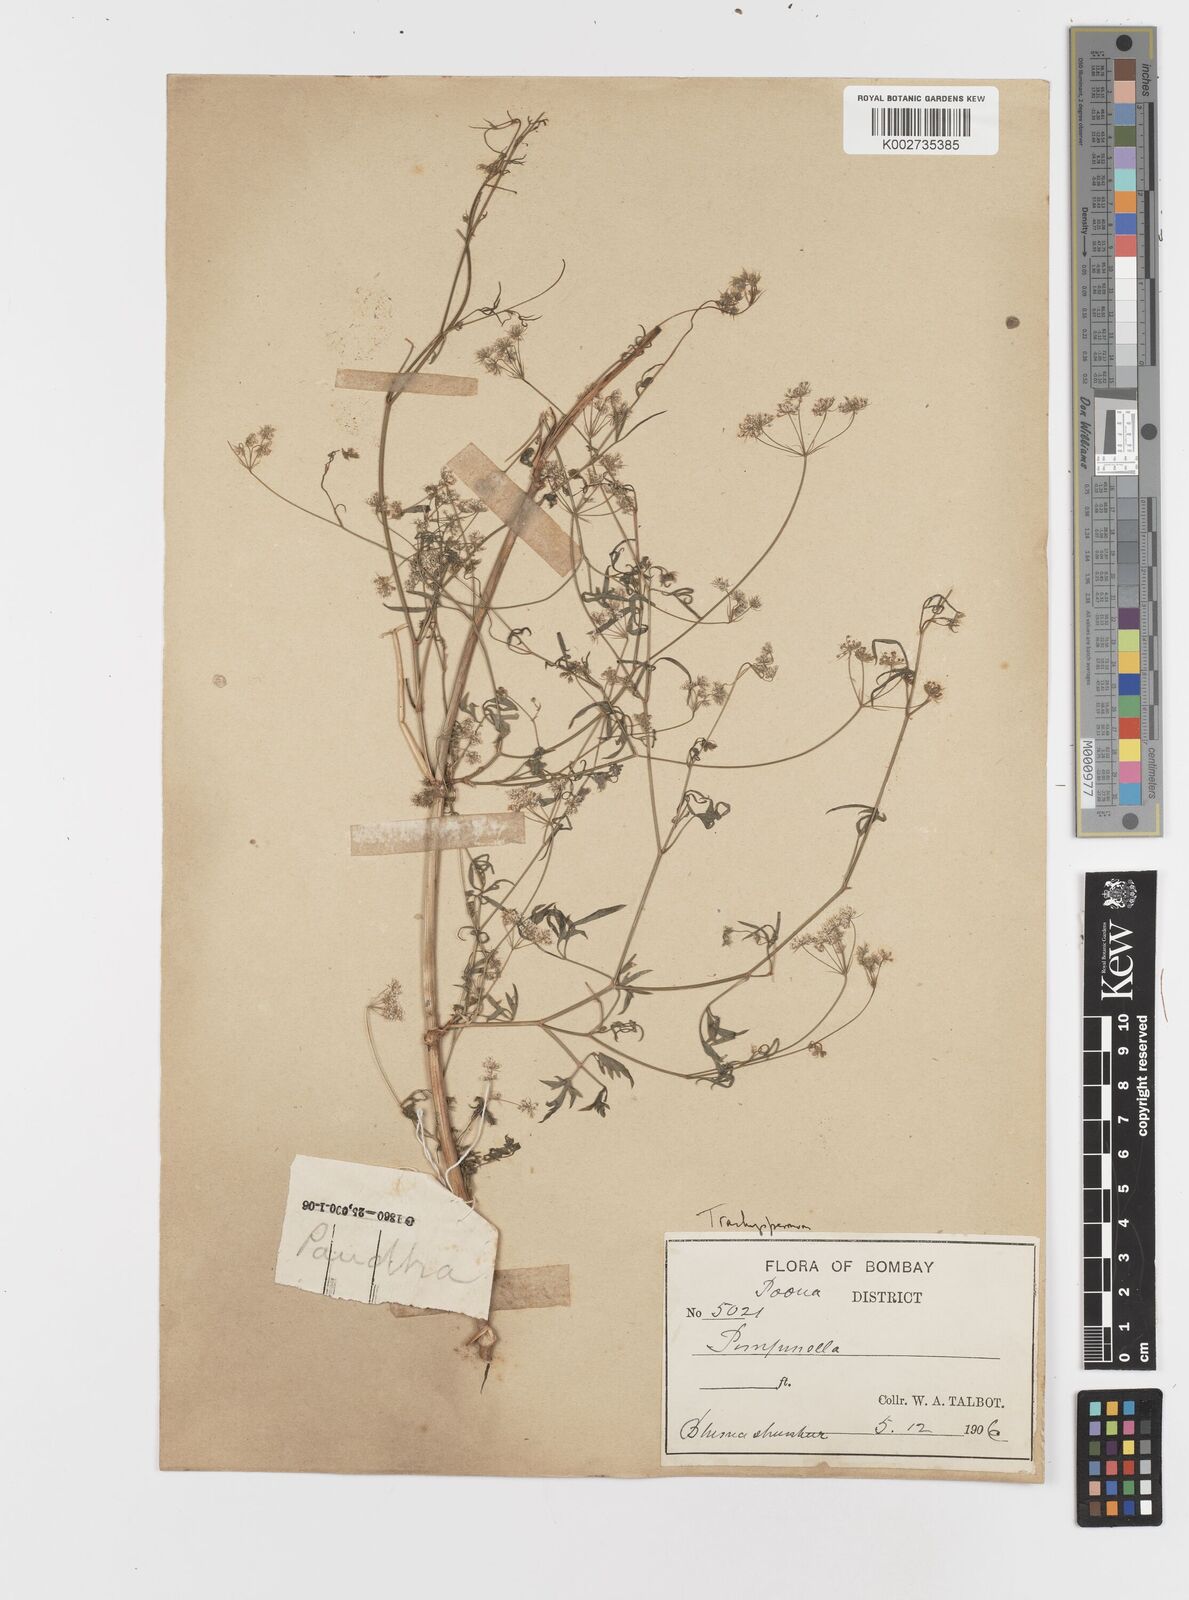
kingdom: Plantae
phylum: Tracheophyta
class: Magnoliopsida
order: Apiales
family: Apiaceae
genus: Psammogeton
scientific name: Psammogeton involucratum
